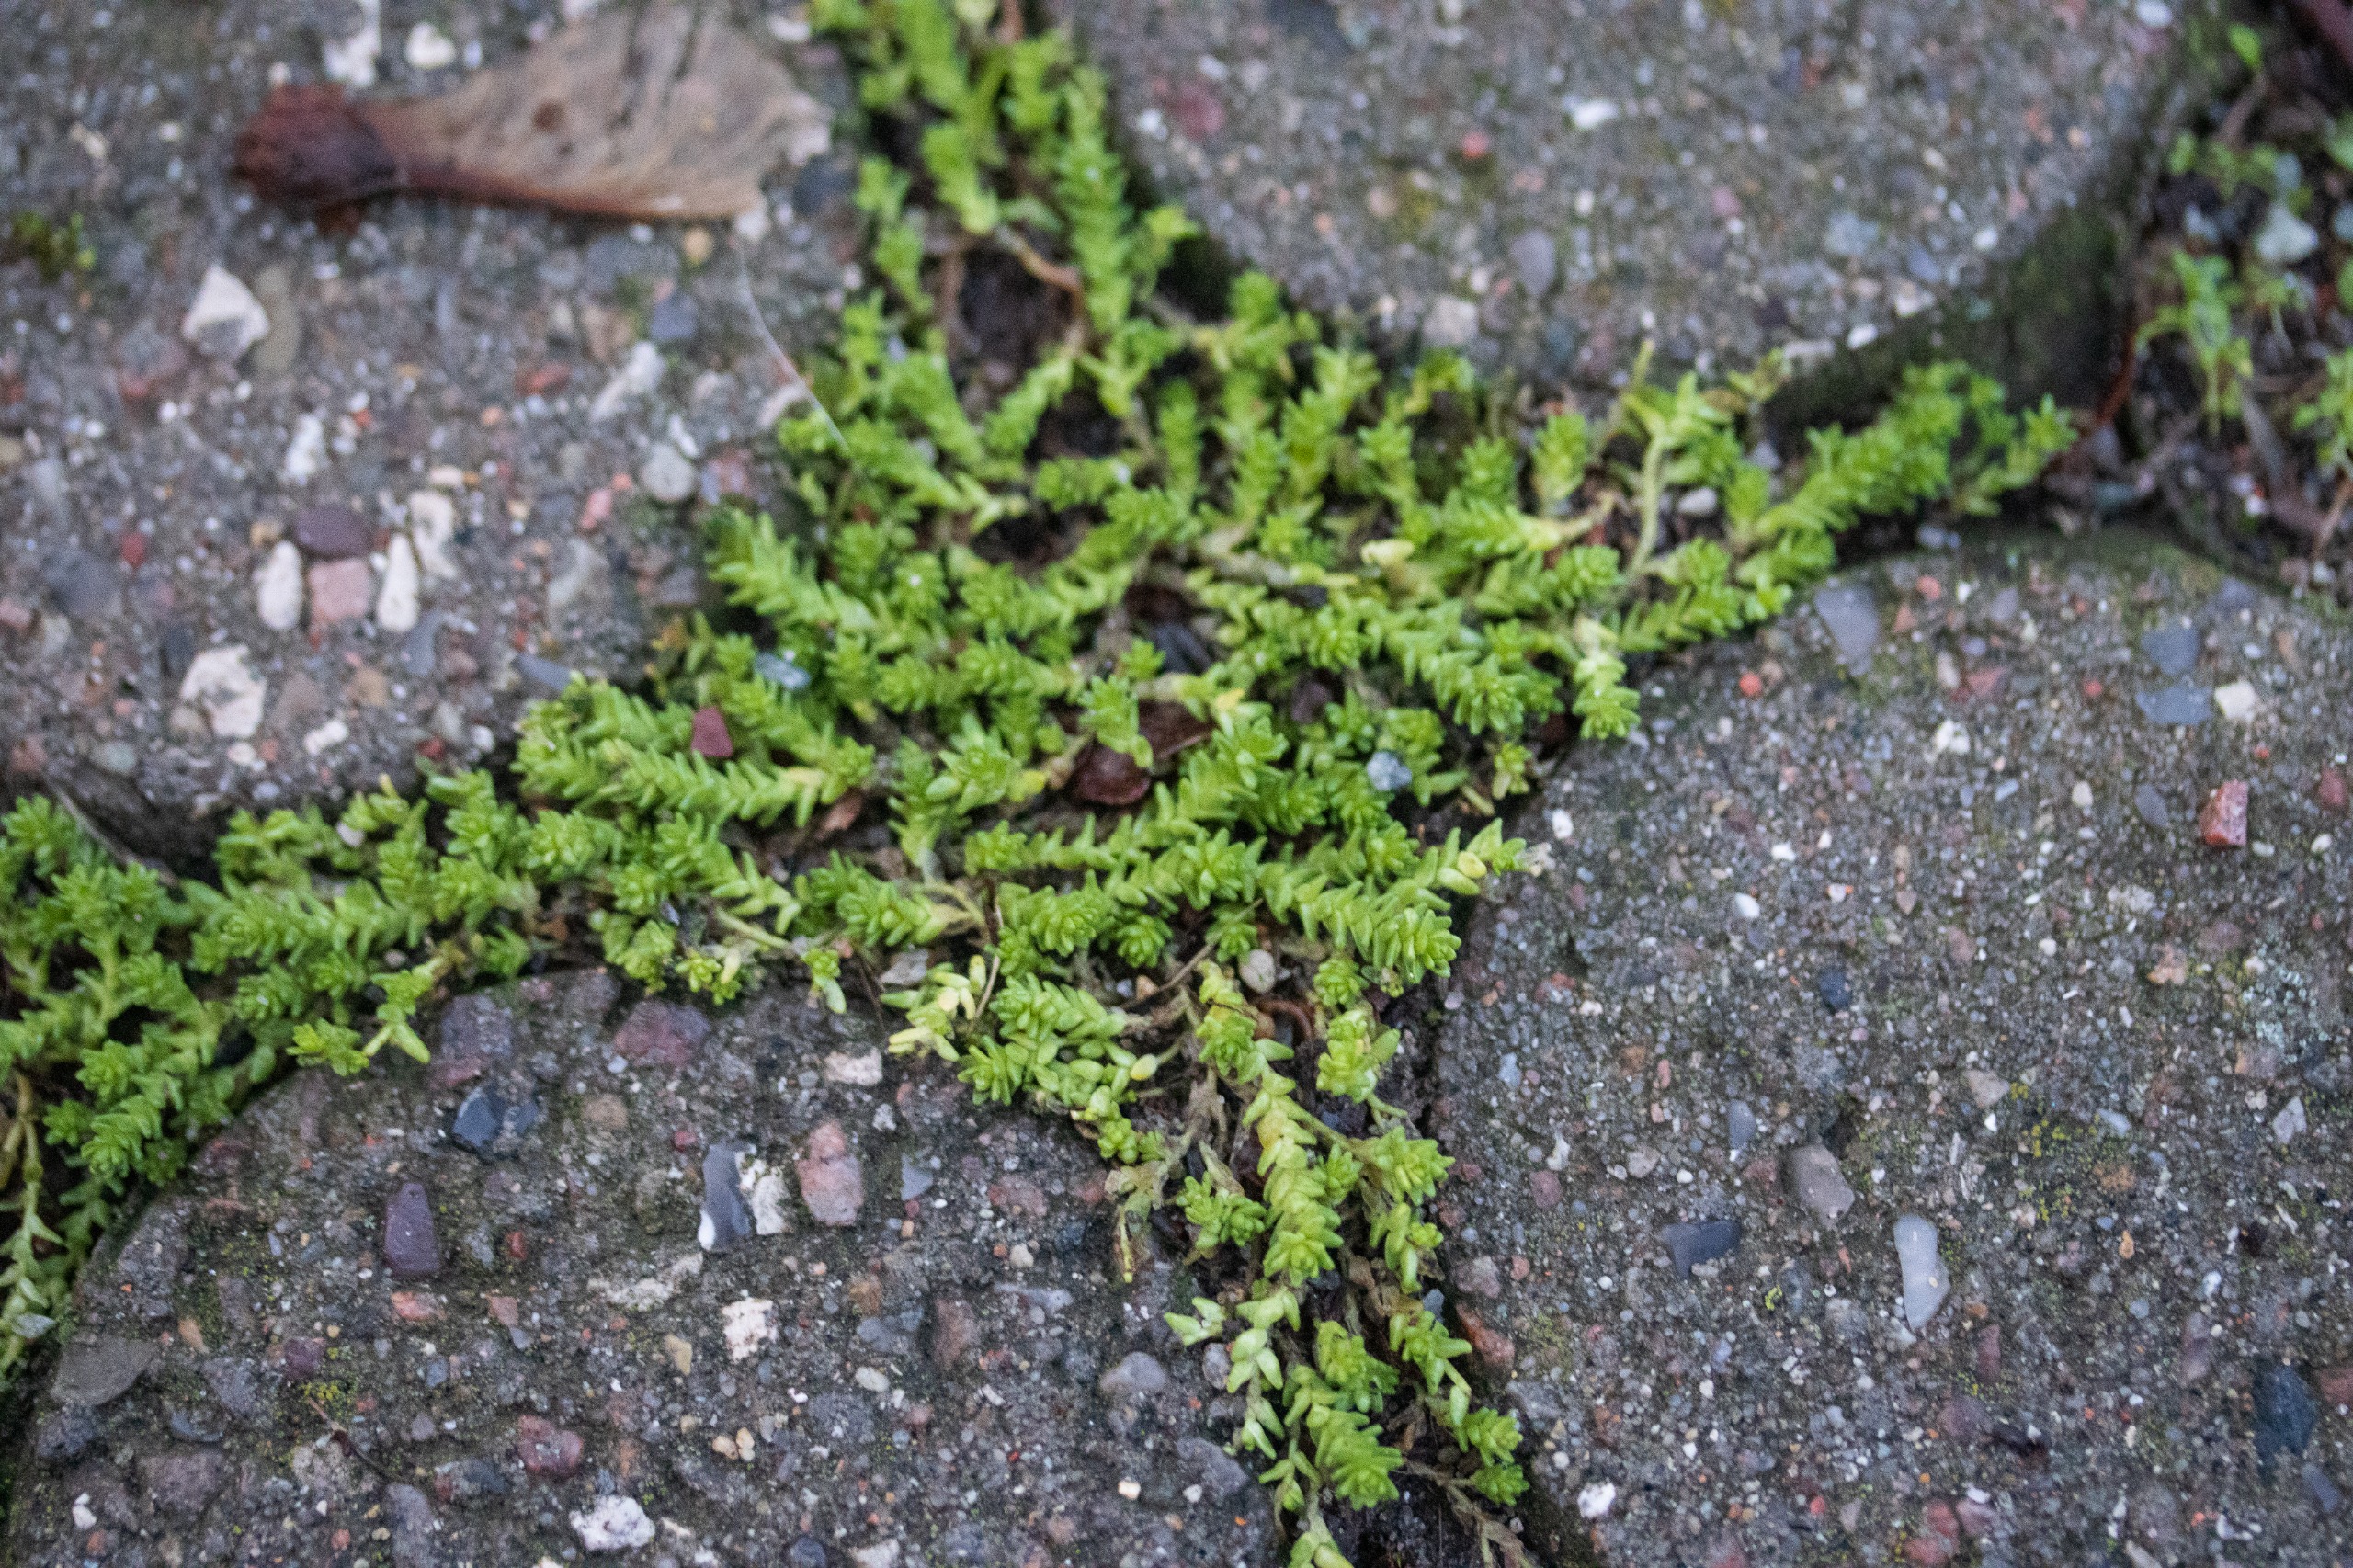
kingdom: Plantae
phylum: Tracheophyta
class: Magnoliopsida
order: Saxifragales
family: Crassulaceae
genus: Sedum
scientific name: Sedum acre
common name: Bidende stenurt
